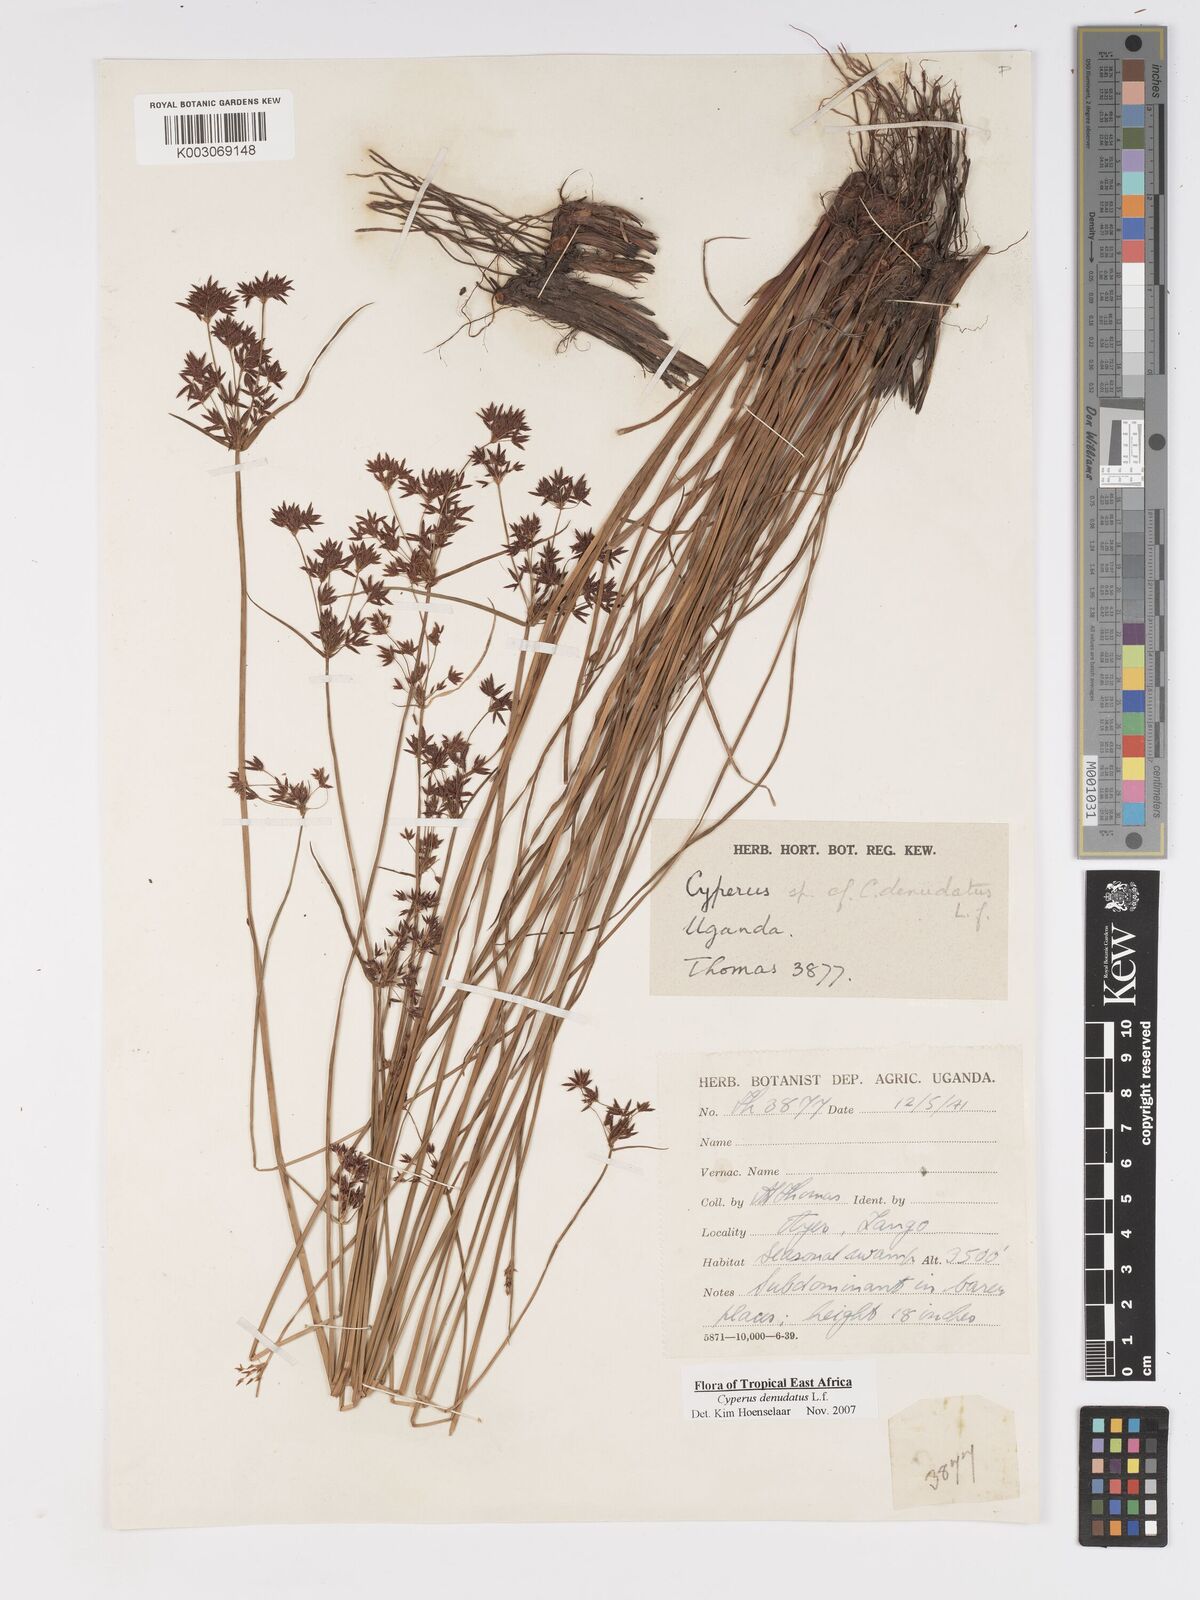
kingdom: Plantae
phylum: Tracheophyta
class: Liliopsida
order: Poales
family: Cyperaceae
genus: Cyperus
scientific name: Cyperus denudatus
